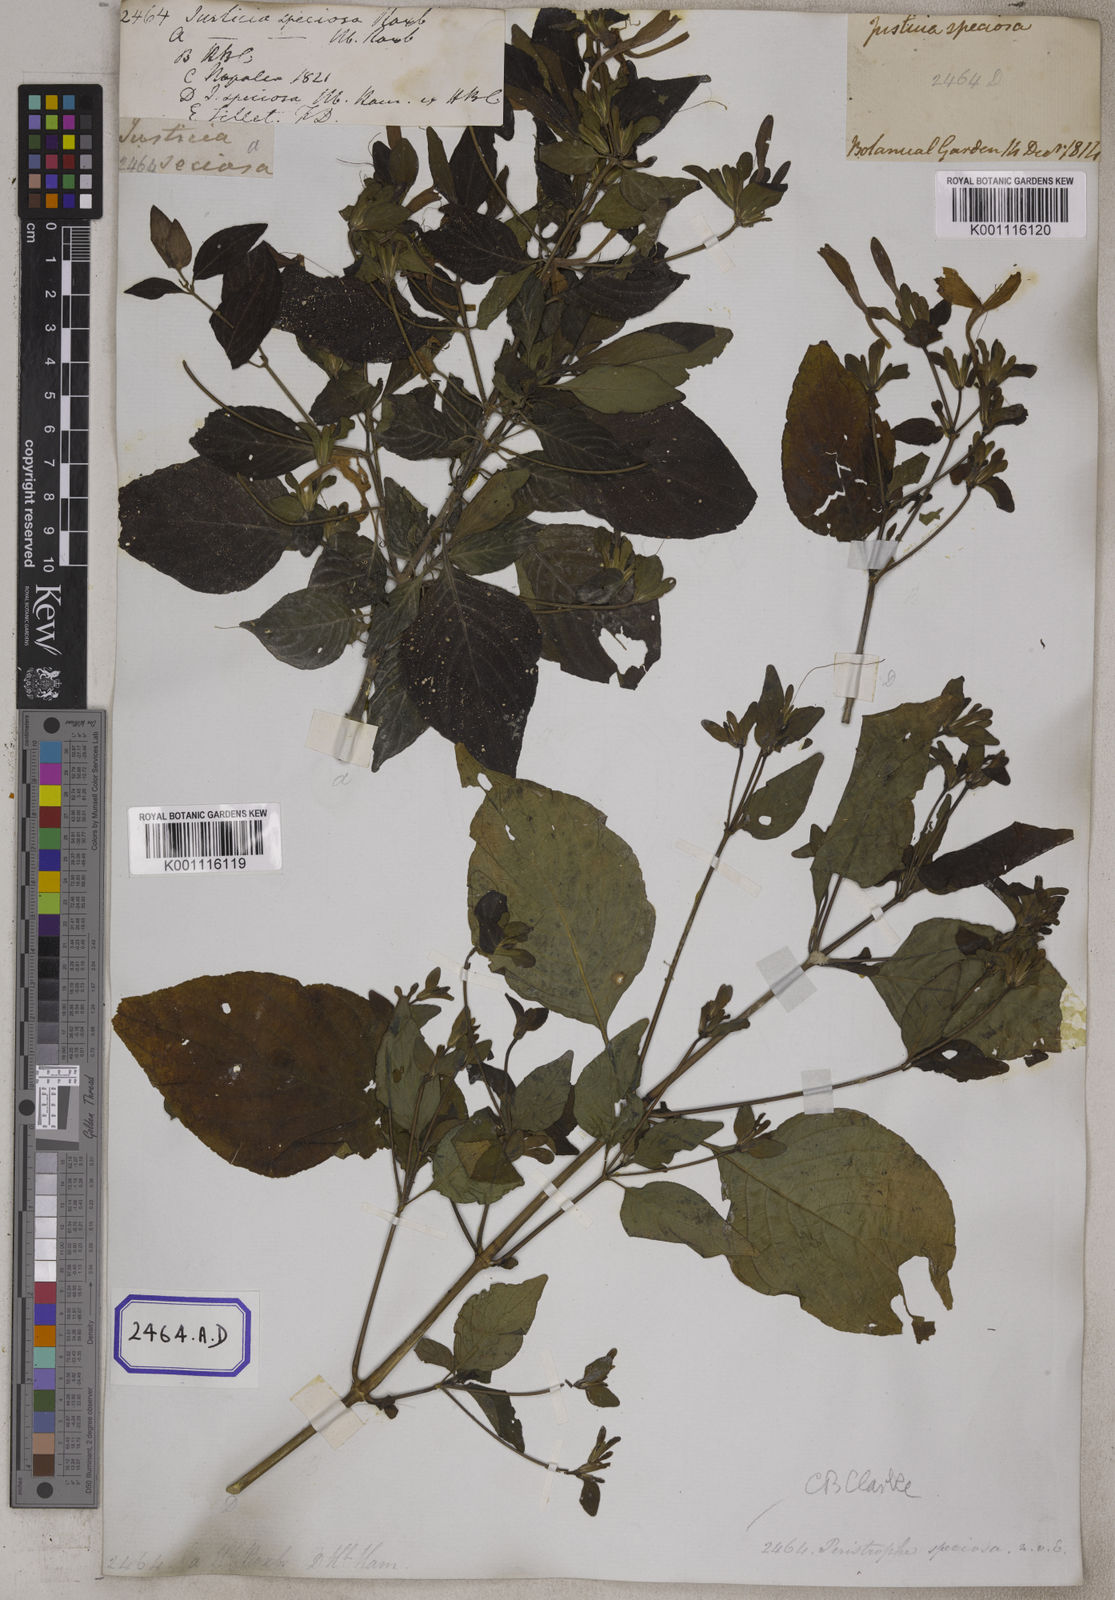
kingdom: Plantae
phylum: Tracheophyta
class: Magnoliopsida
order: Lamiales
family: Acanthaceae
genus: Dicliptera
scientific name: Dicliptera raui
